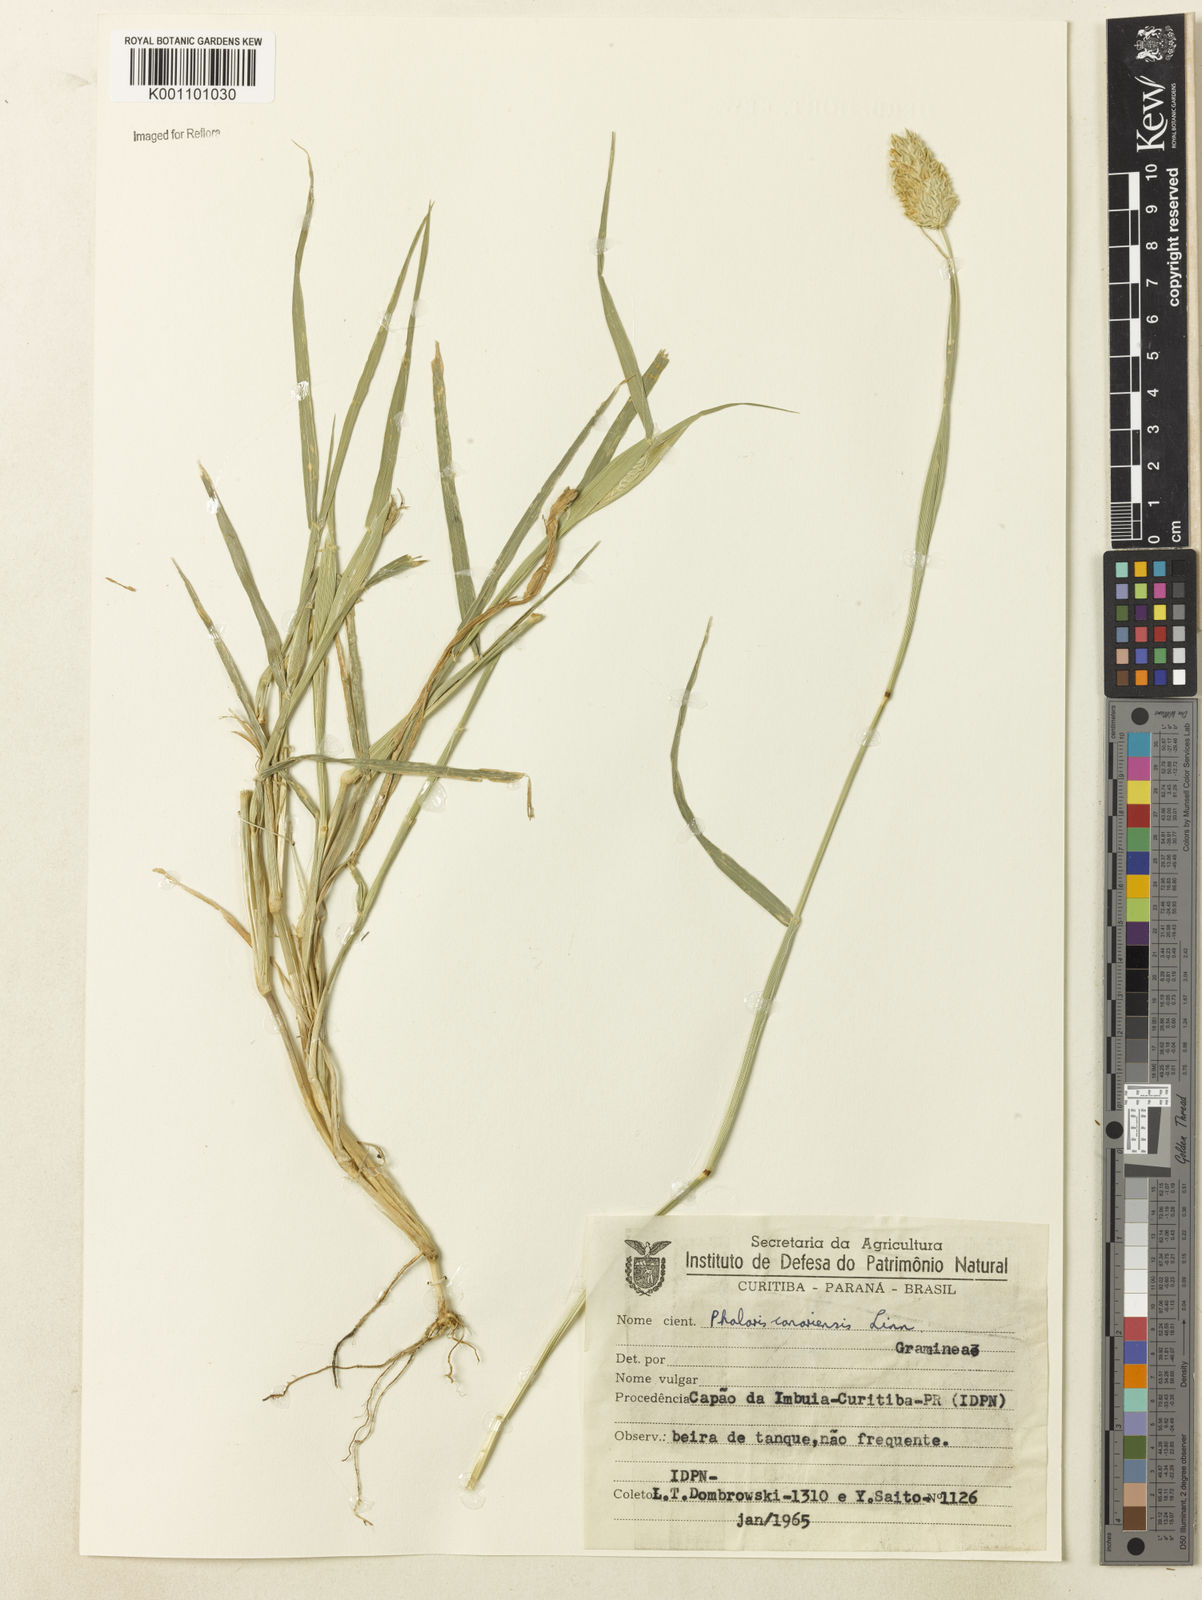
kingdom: Plantae
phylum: Tracheophyta
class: Liliopsida
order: Poales
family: Poaceae
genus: Phalaris
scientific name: Phalaris canariensis
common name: Annual canarygrass
